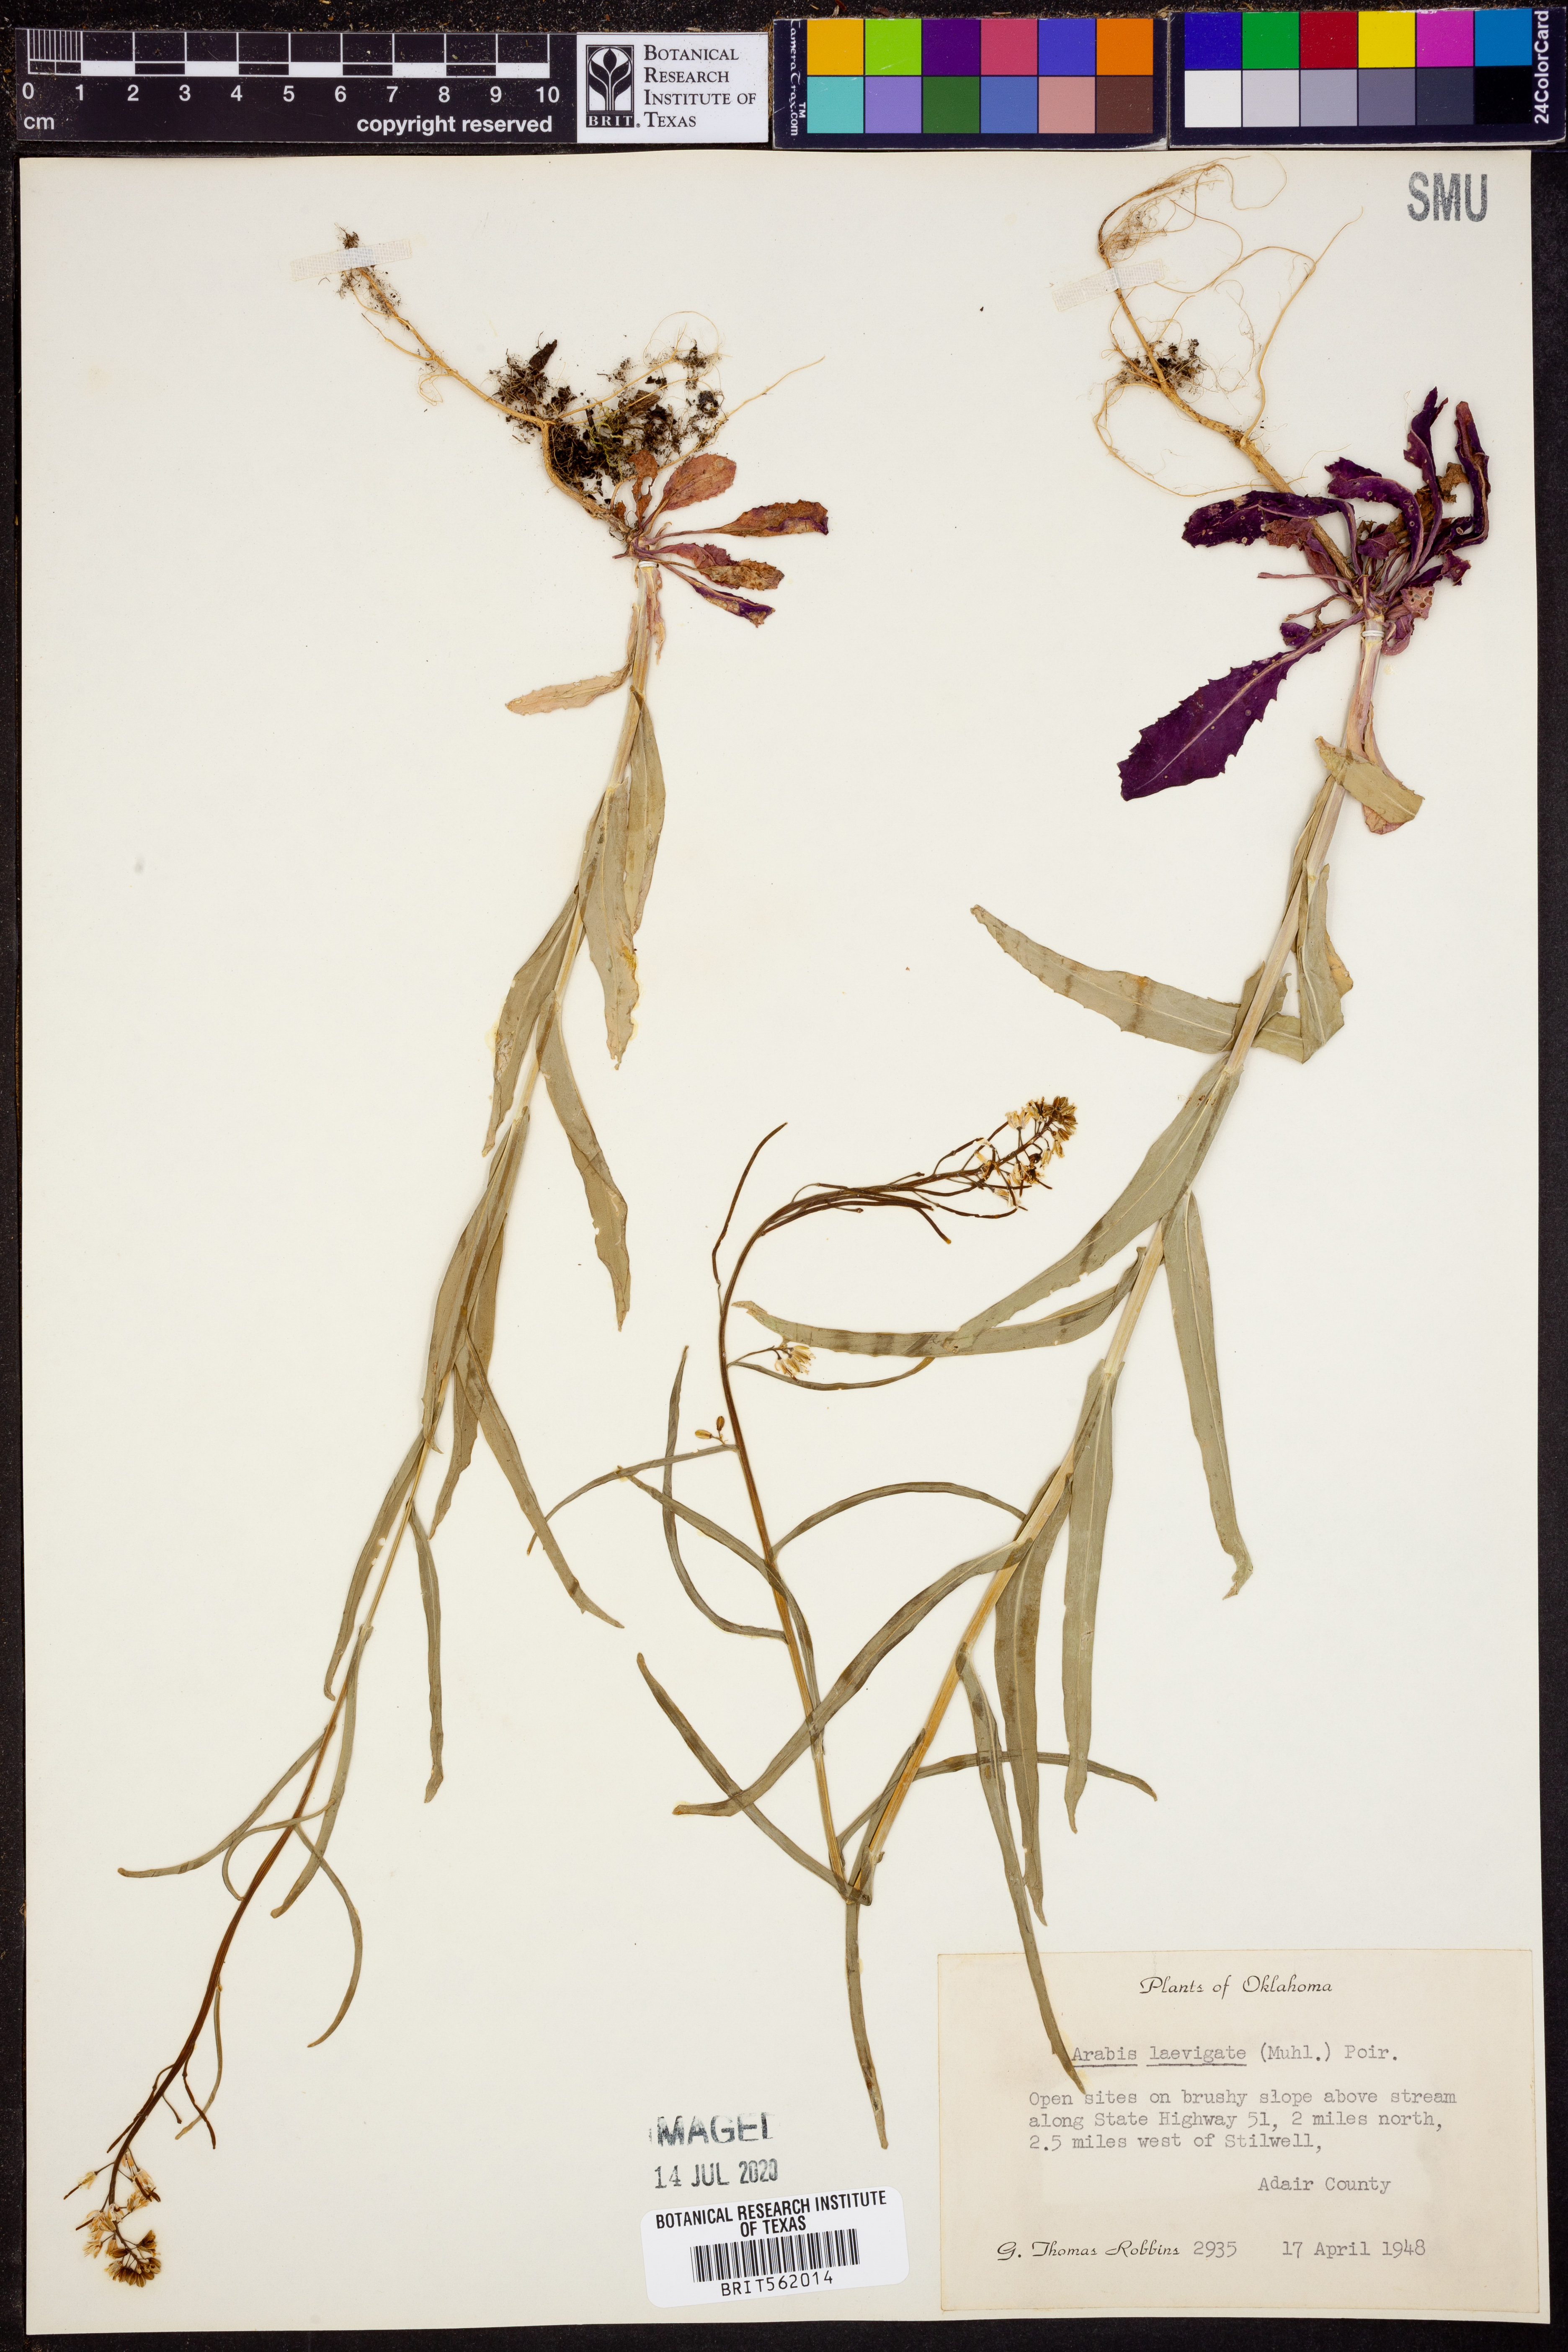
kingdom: Plantae
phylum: Tracheophyta
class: Magnoliopsida
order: Brassicales
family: Brassicaceae
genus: Arabis
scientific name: Arabis laevigata
